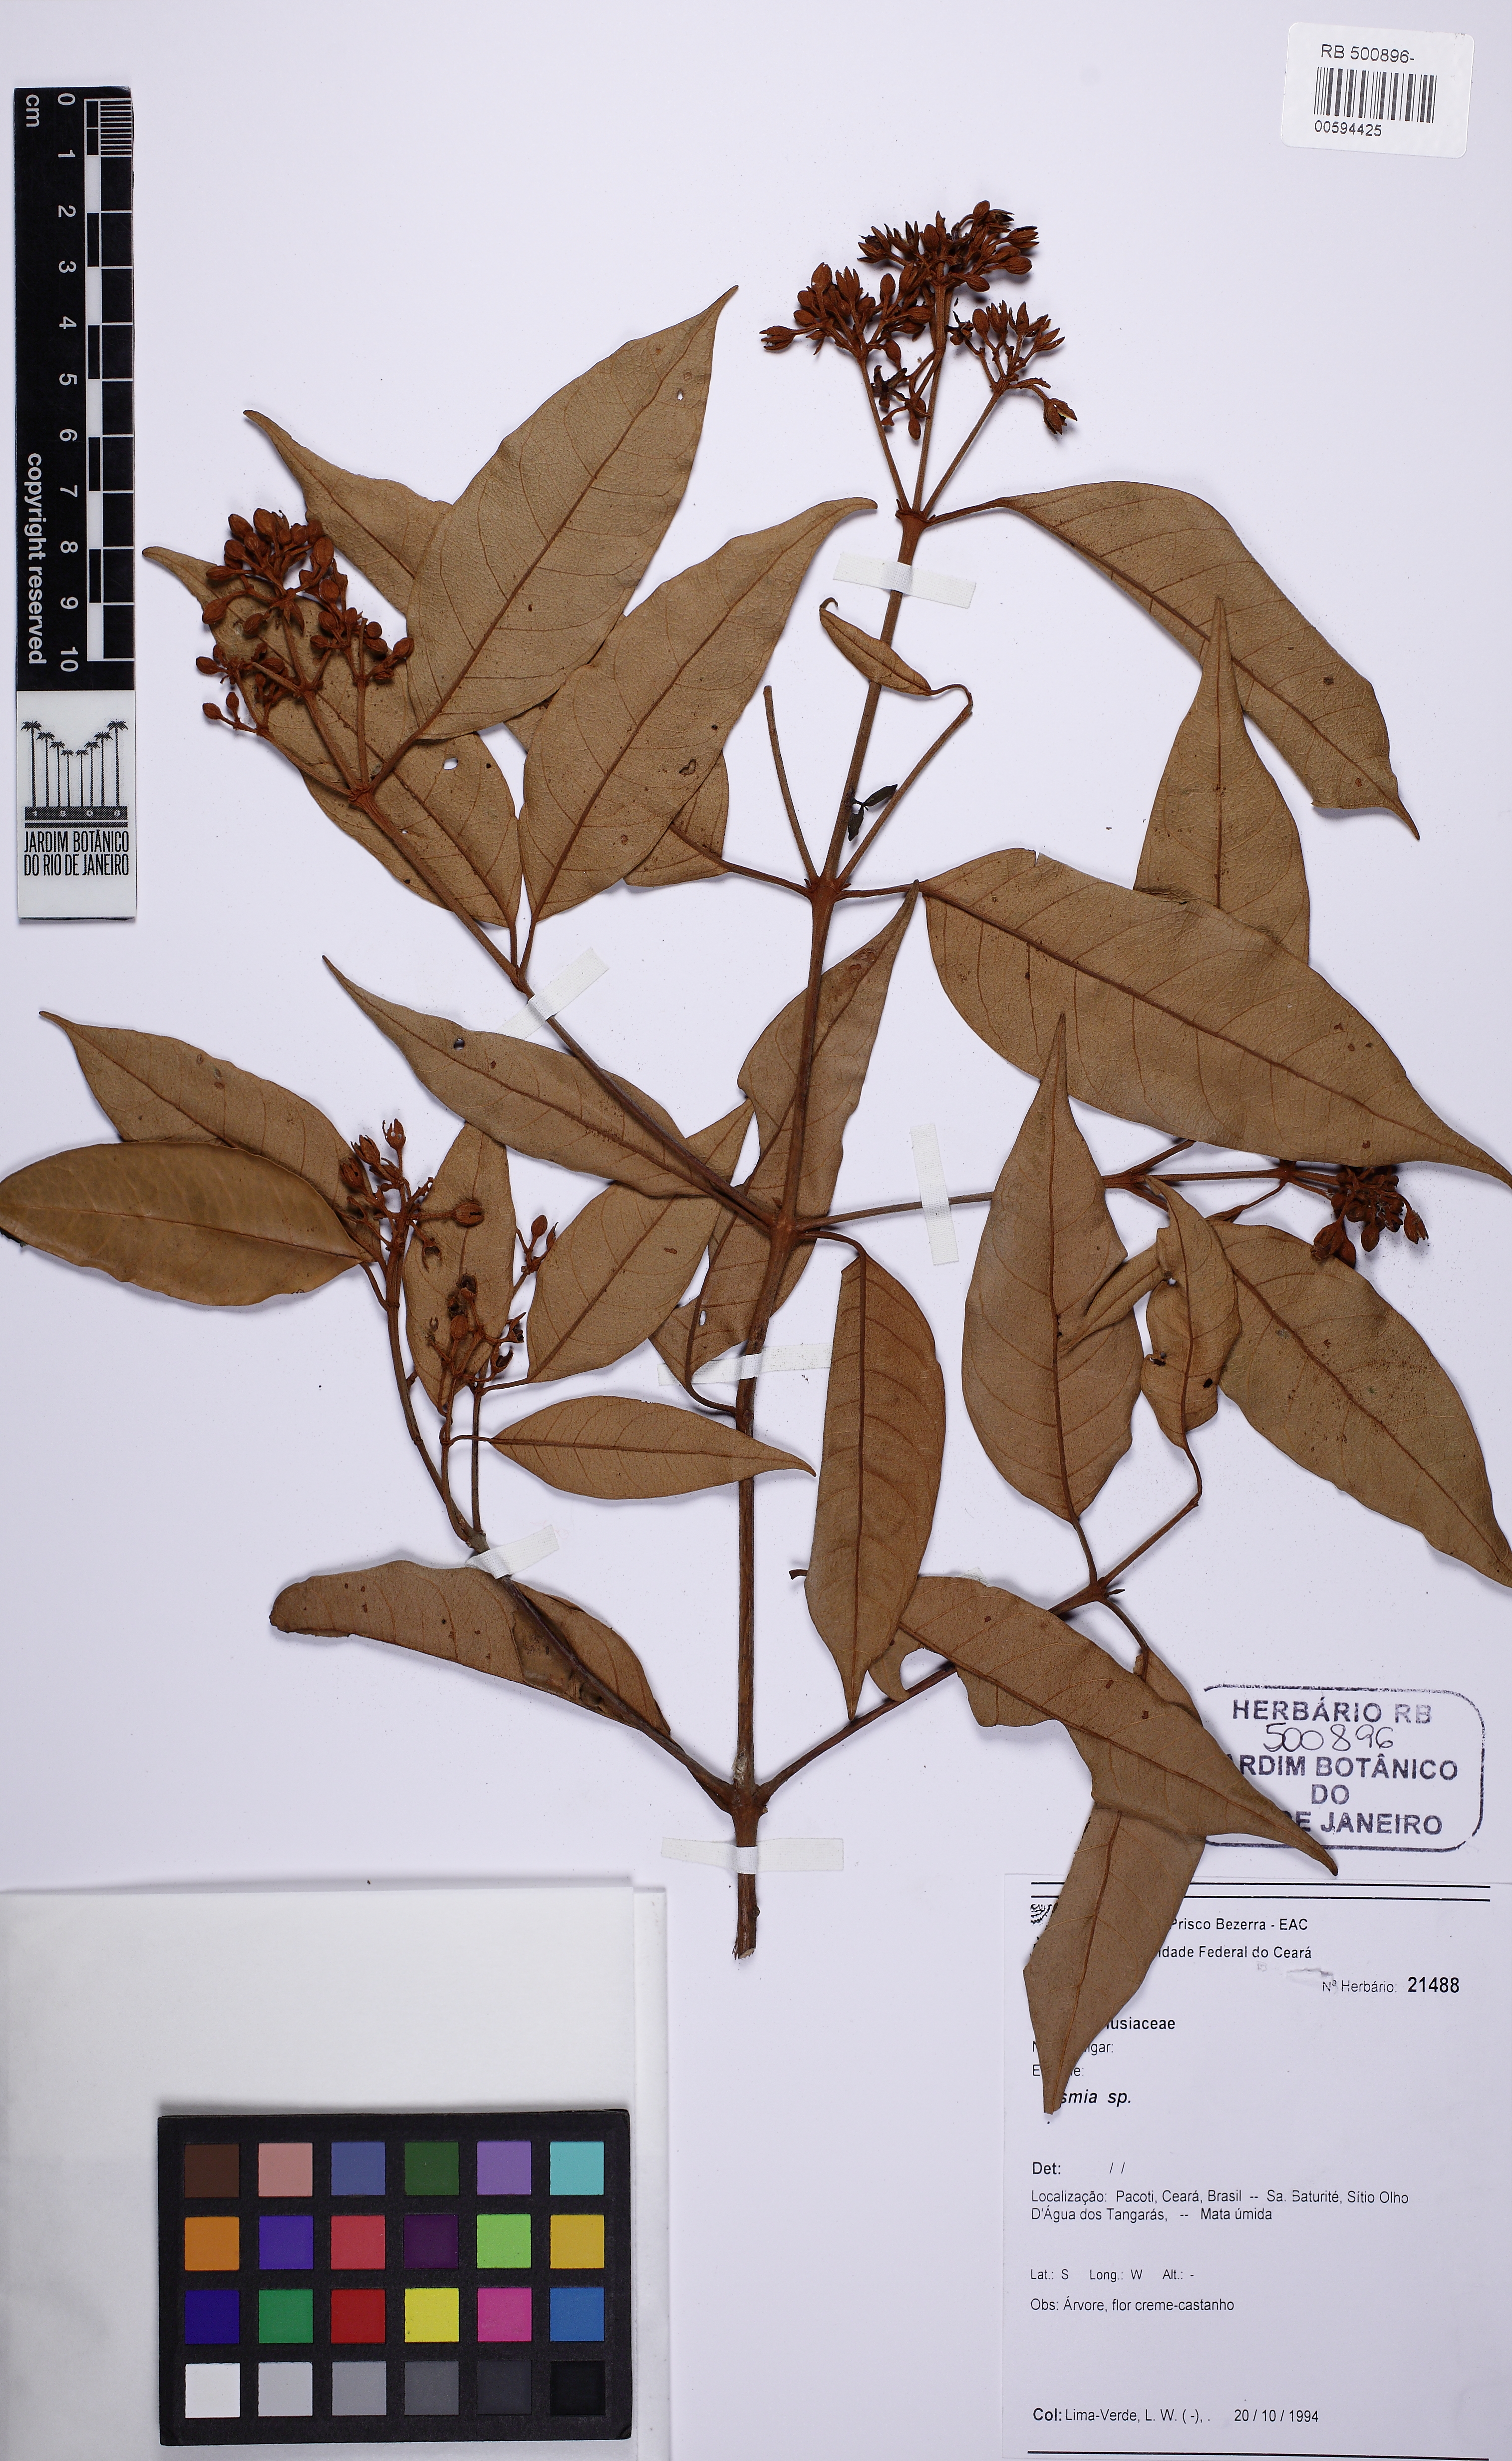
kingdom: Plantae
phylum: Tracheophyta
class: Magnoliopsida
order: Malpighiales
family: Hypericaceae
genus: Vismia
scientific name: Vismia guianensis
